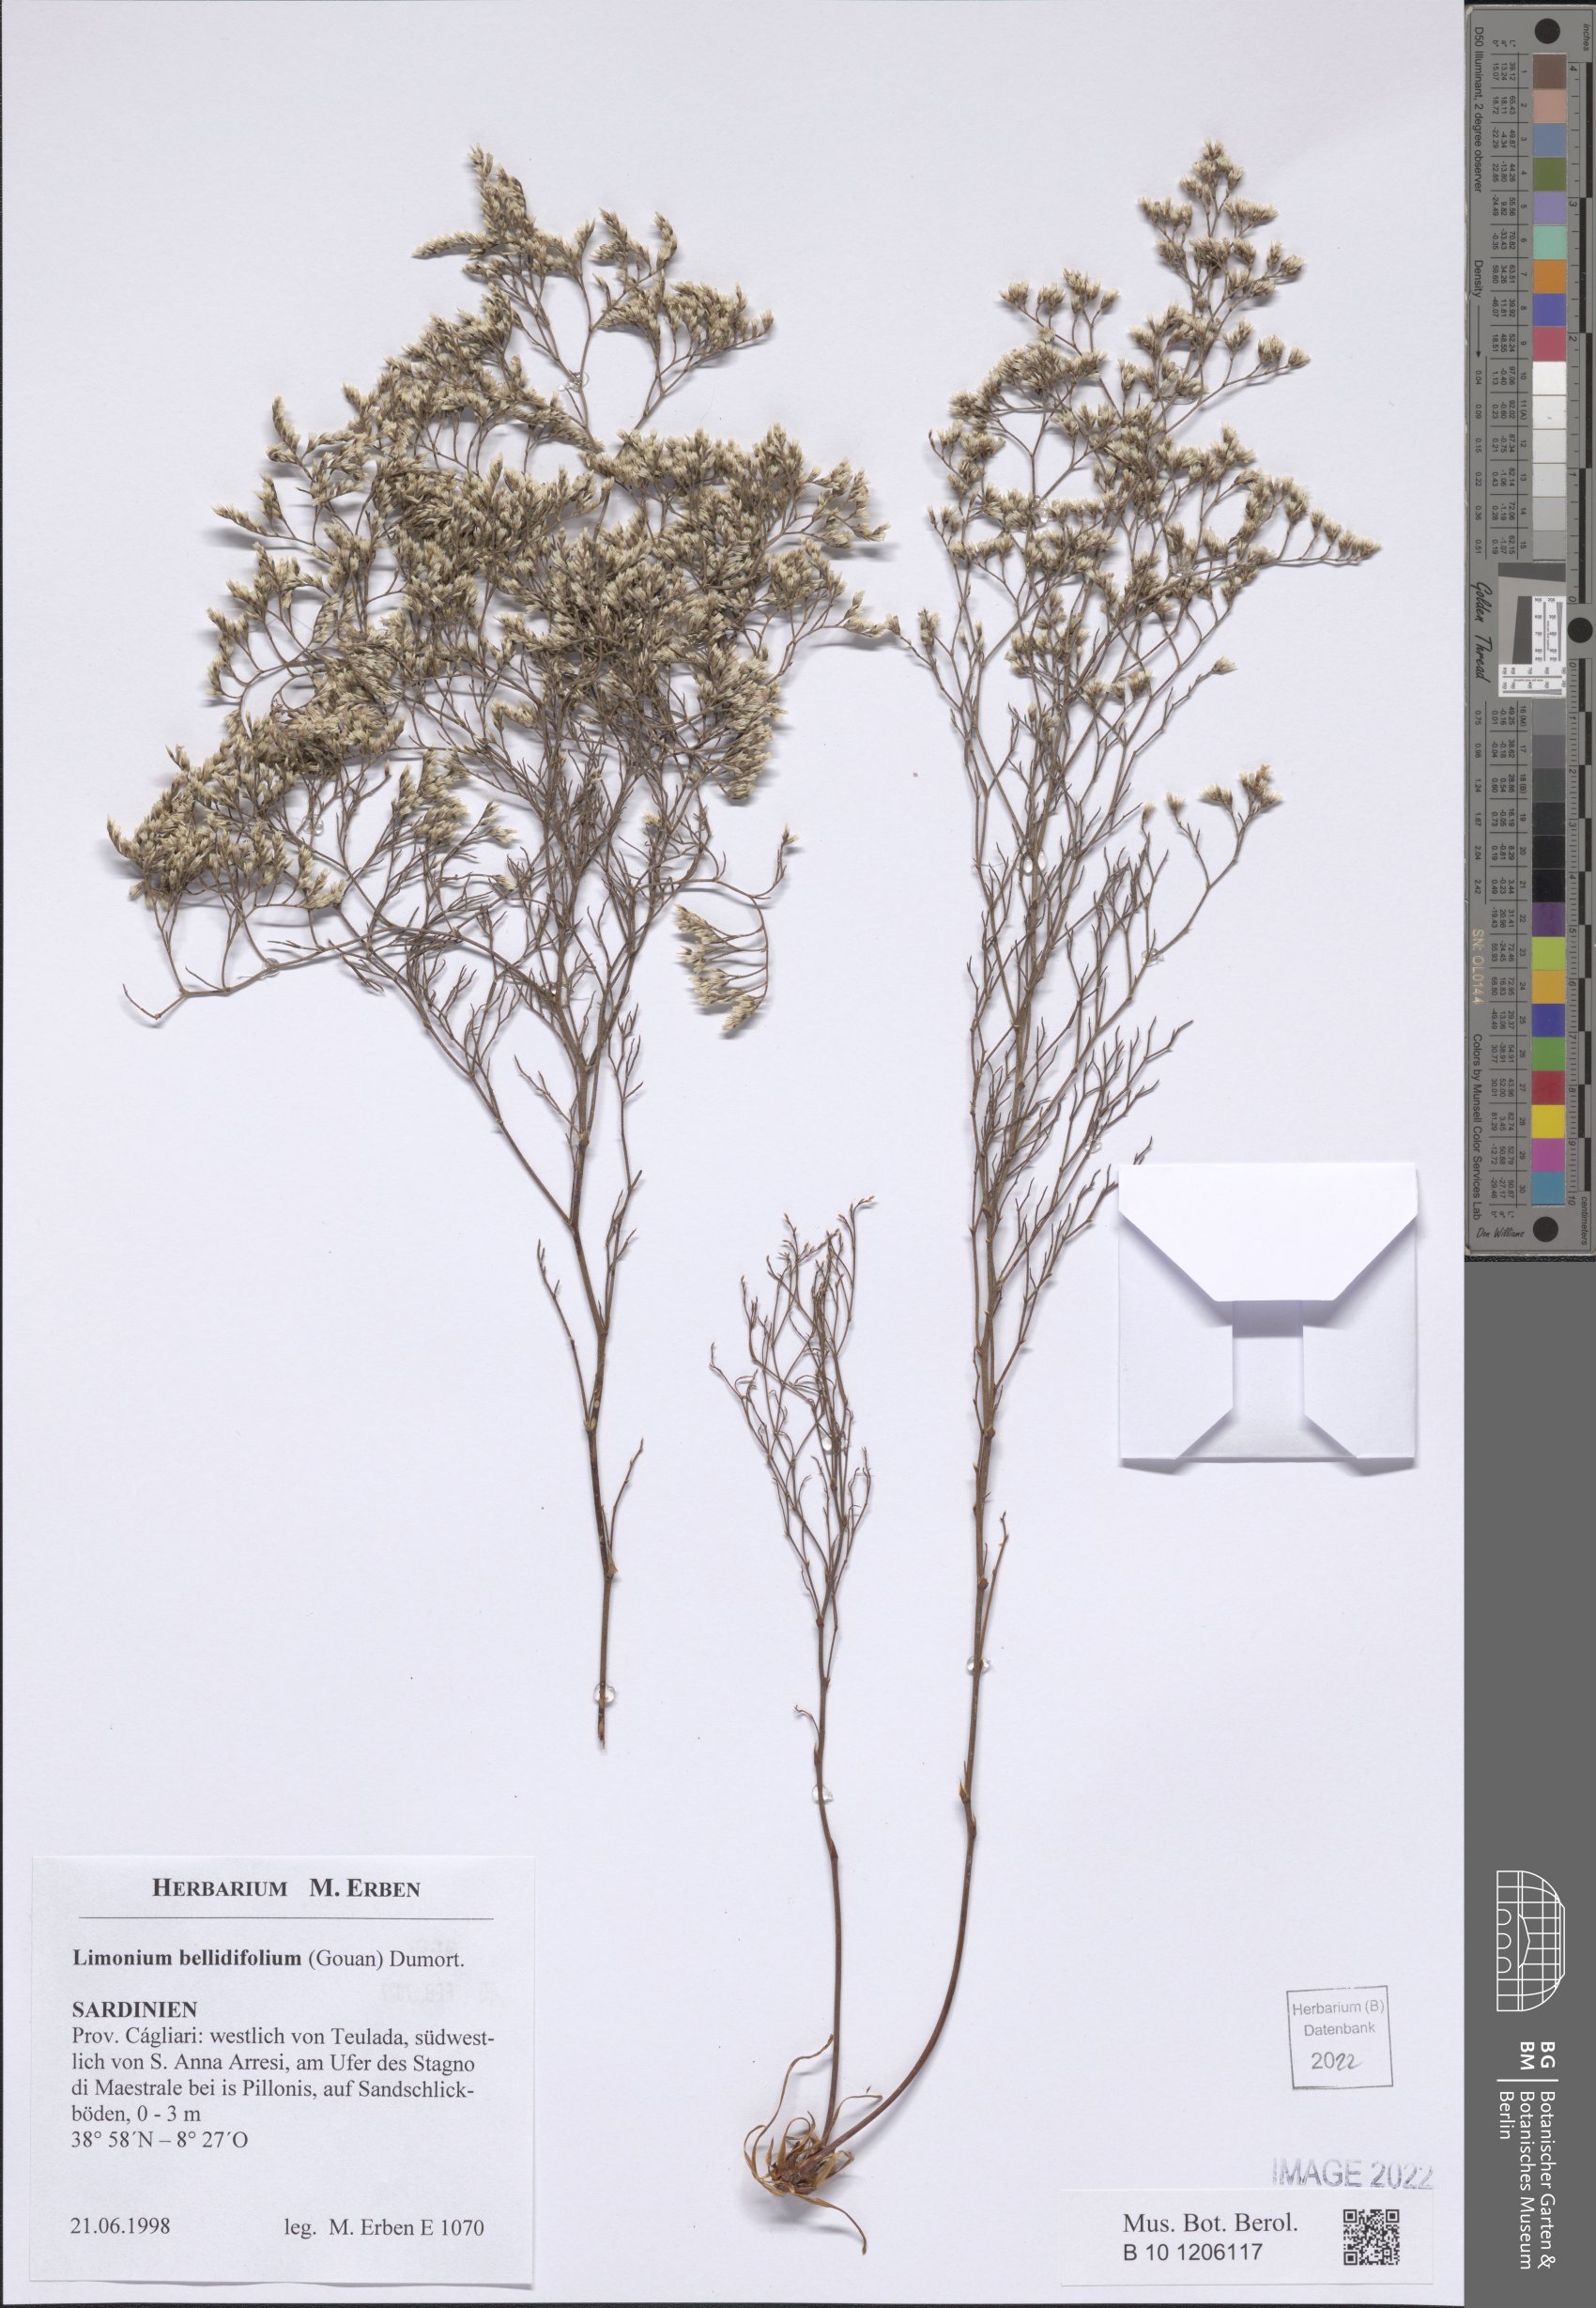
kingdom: Plantae
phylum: Tracheophyta
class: Magnoliopsida
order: Caryophyllales
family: Plumbaginaceae
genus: Limonium
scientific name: Limonium bellidifolium
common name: Matted sea-lavender
